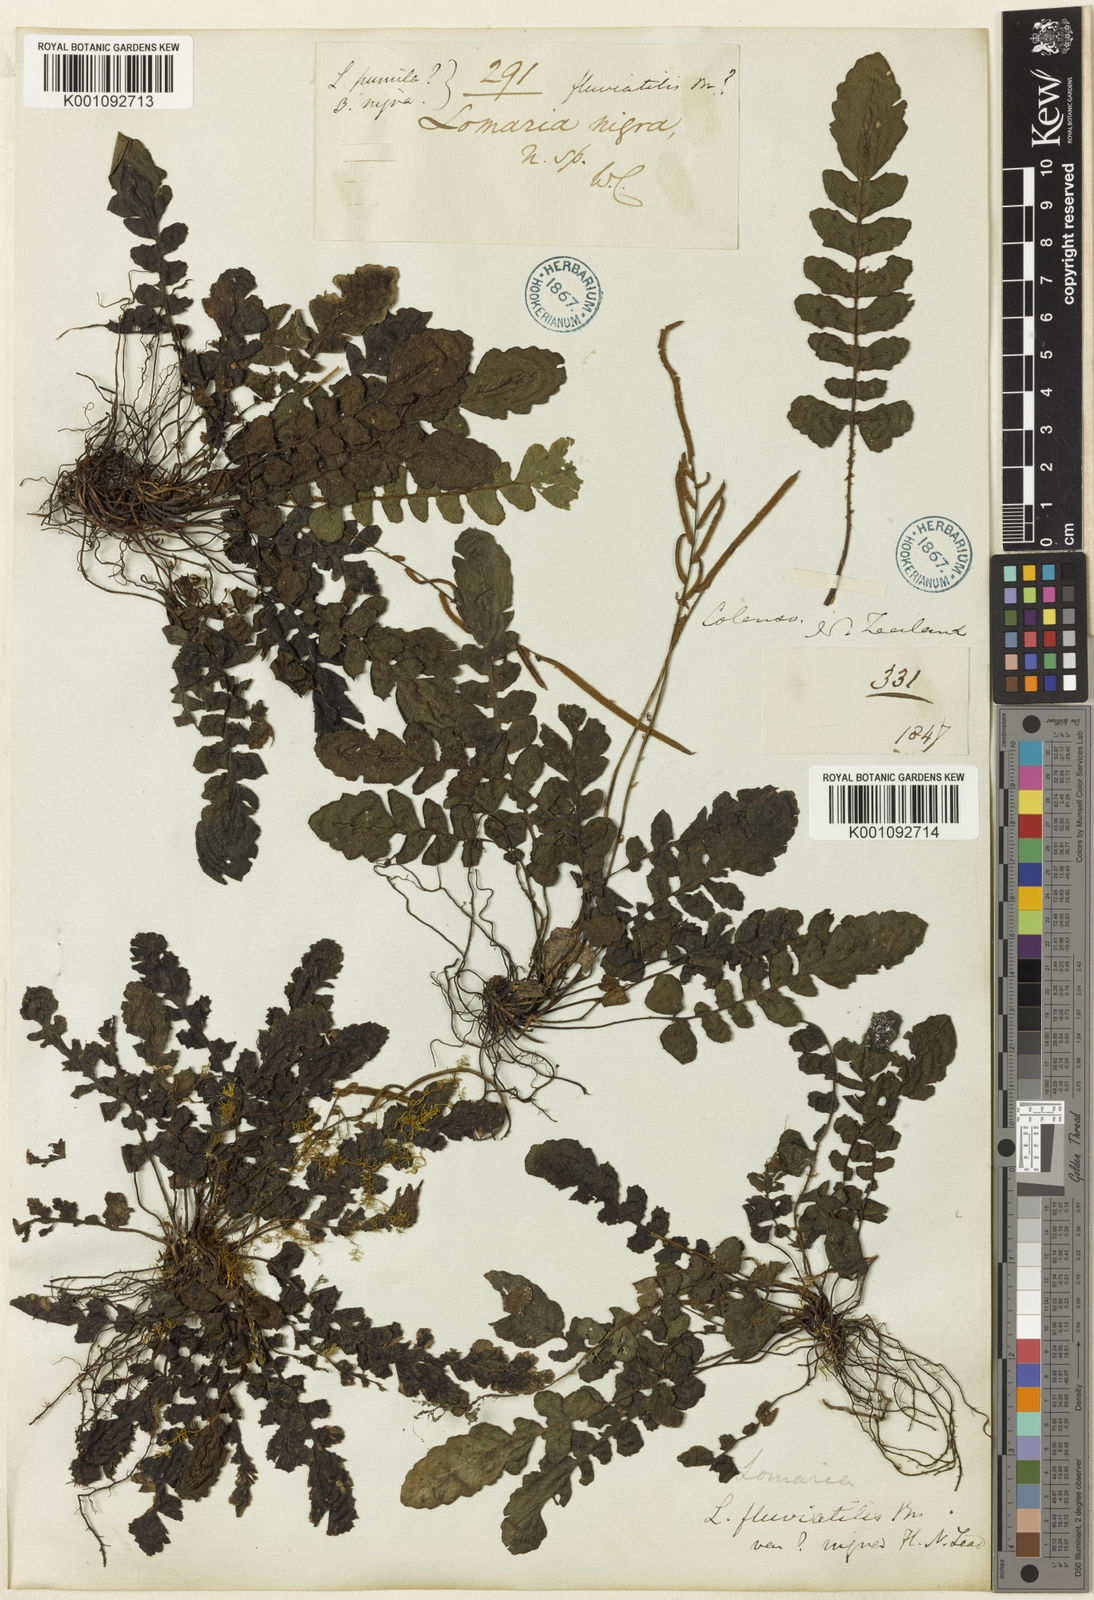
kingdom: Plantae
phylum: Tracheophyta
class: Polypodiopsida
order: Polypodiales
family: Blechnaceae
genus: Cranfillia
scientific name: Cranfillia nigra
